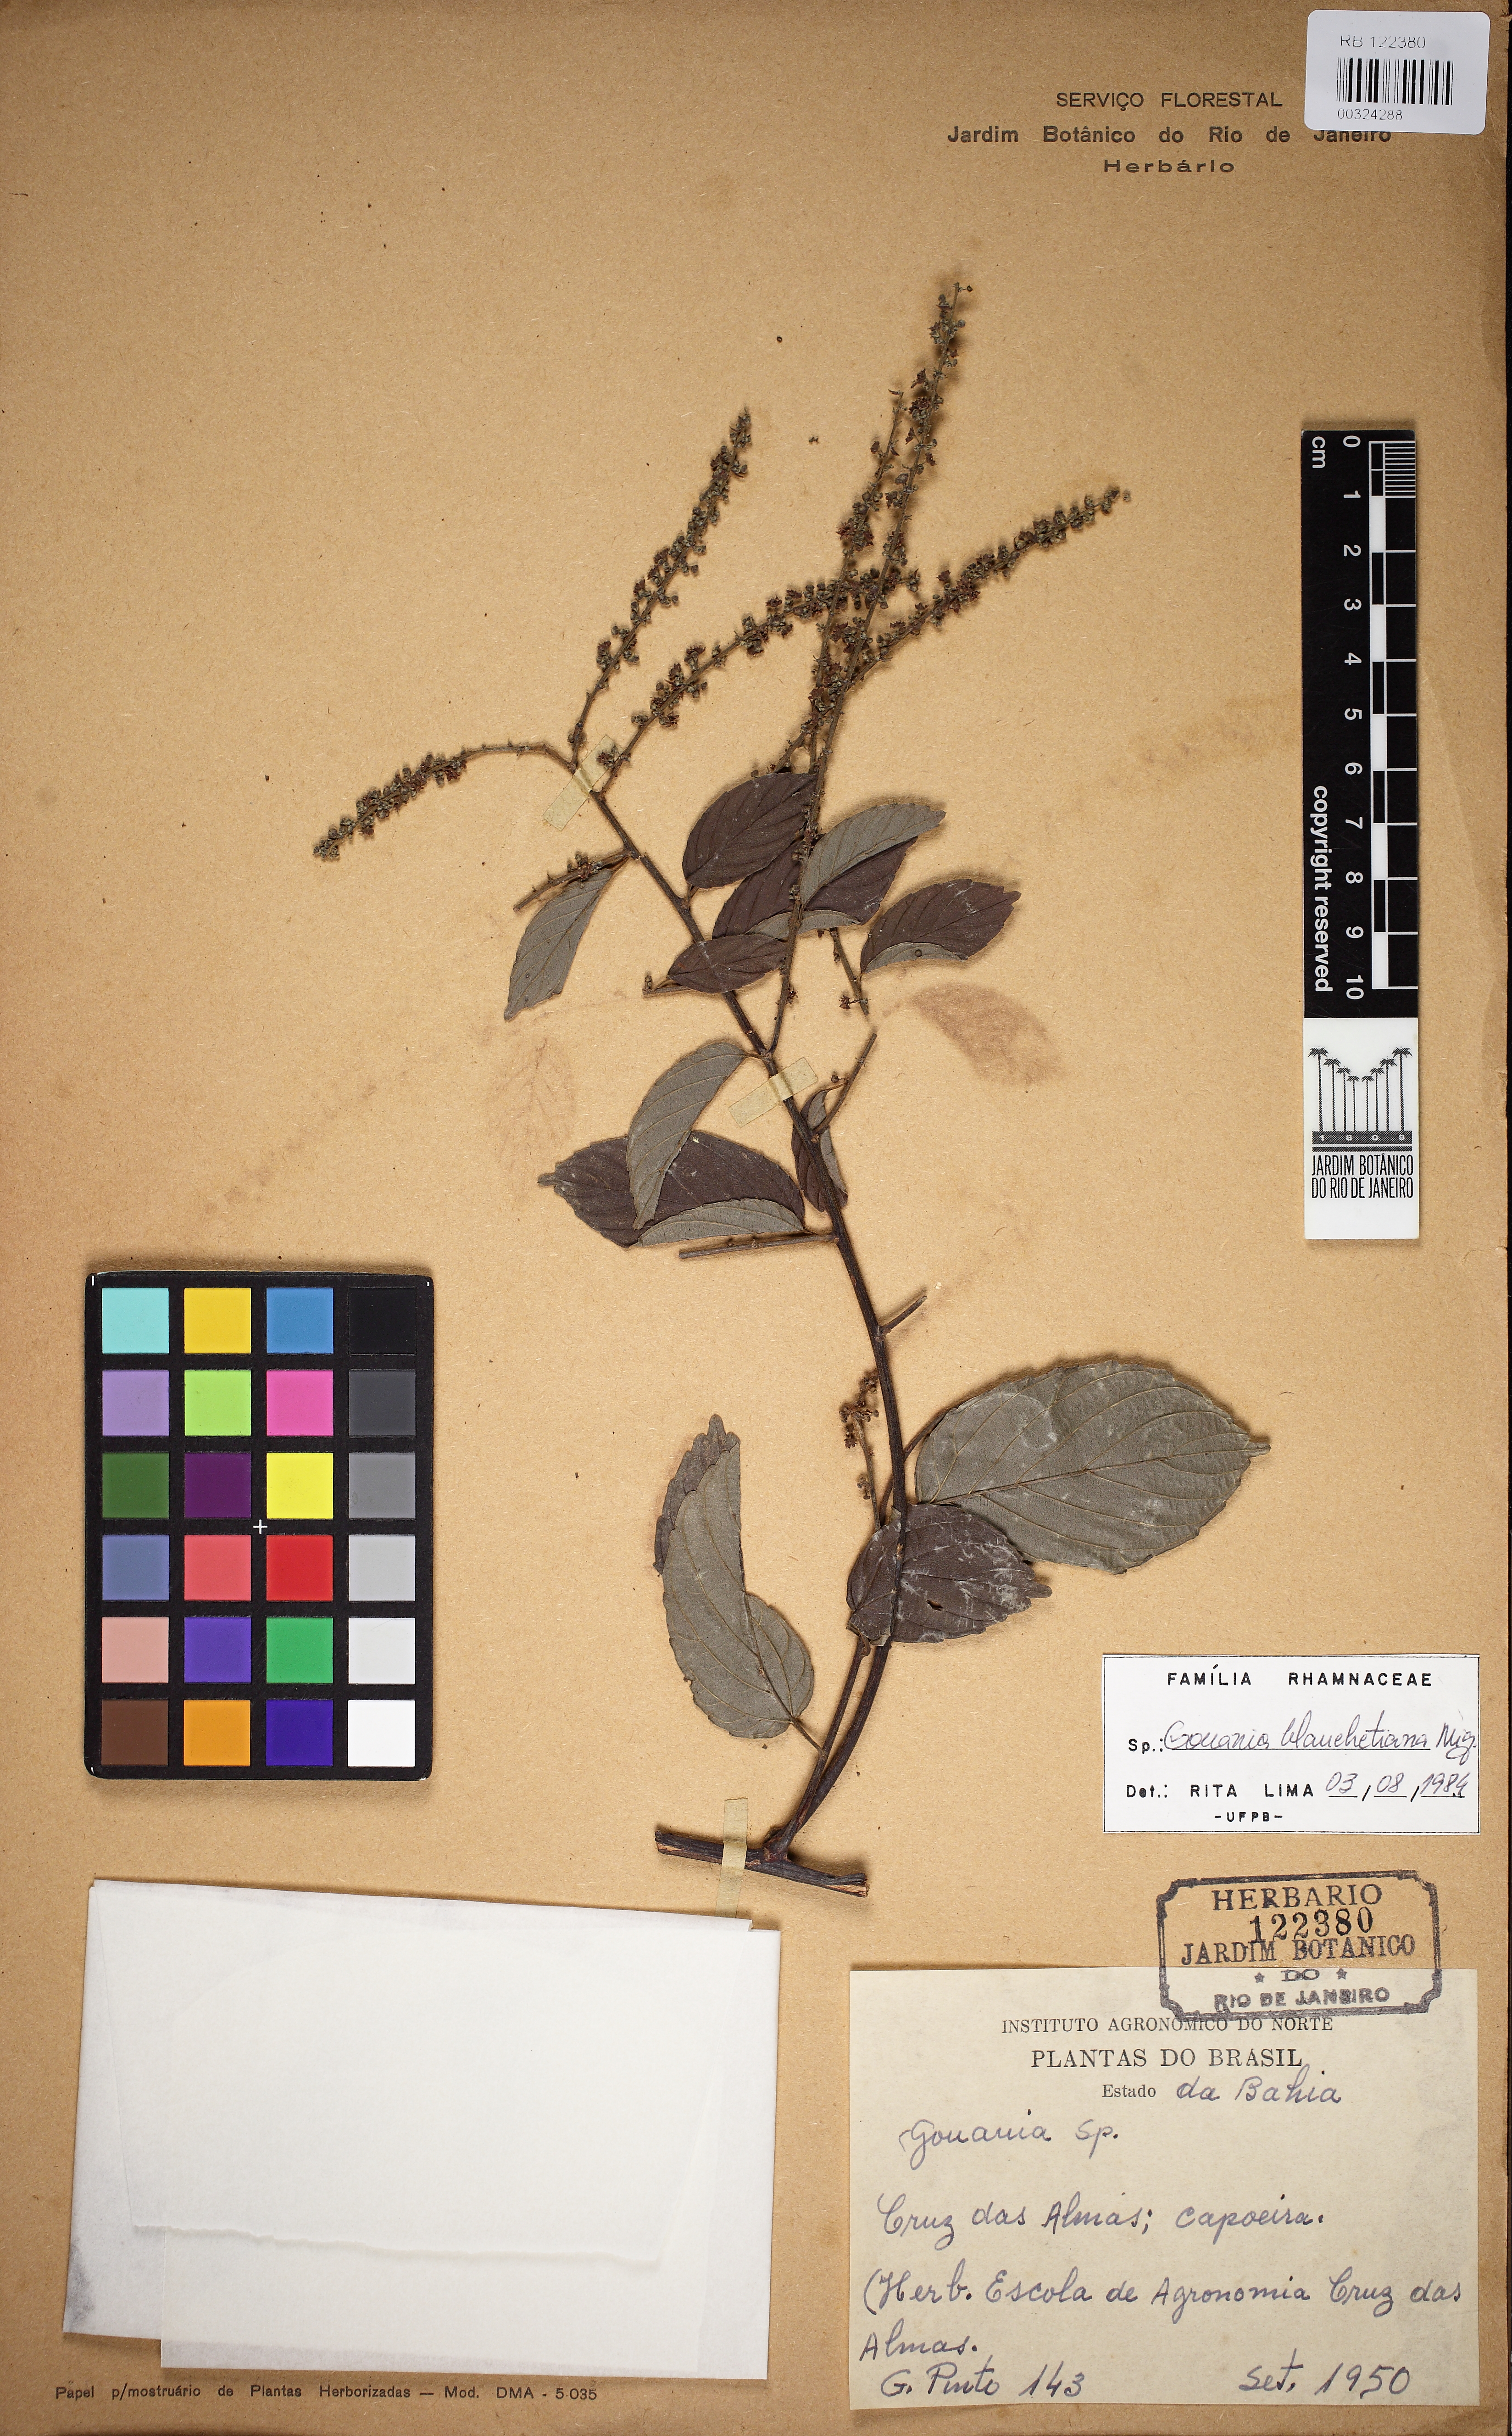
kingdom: Plantae
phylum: Tracheophyta
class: Magnoliopsida
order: Rosales
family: Rhamnaceae
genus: Gouania
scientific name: Gouania blanchetiana
